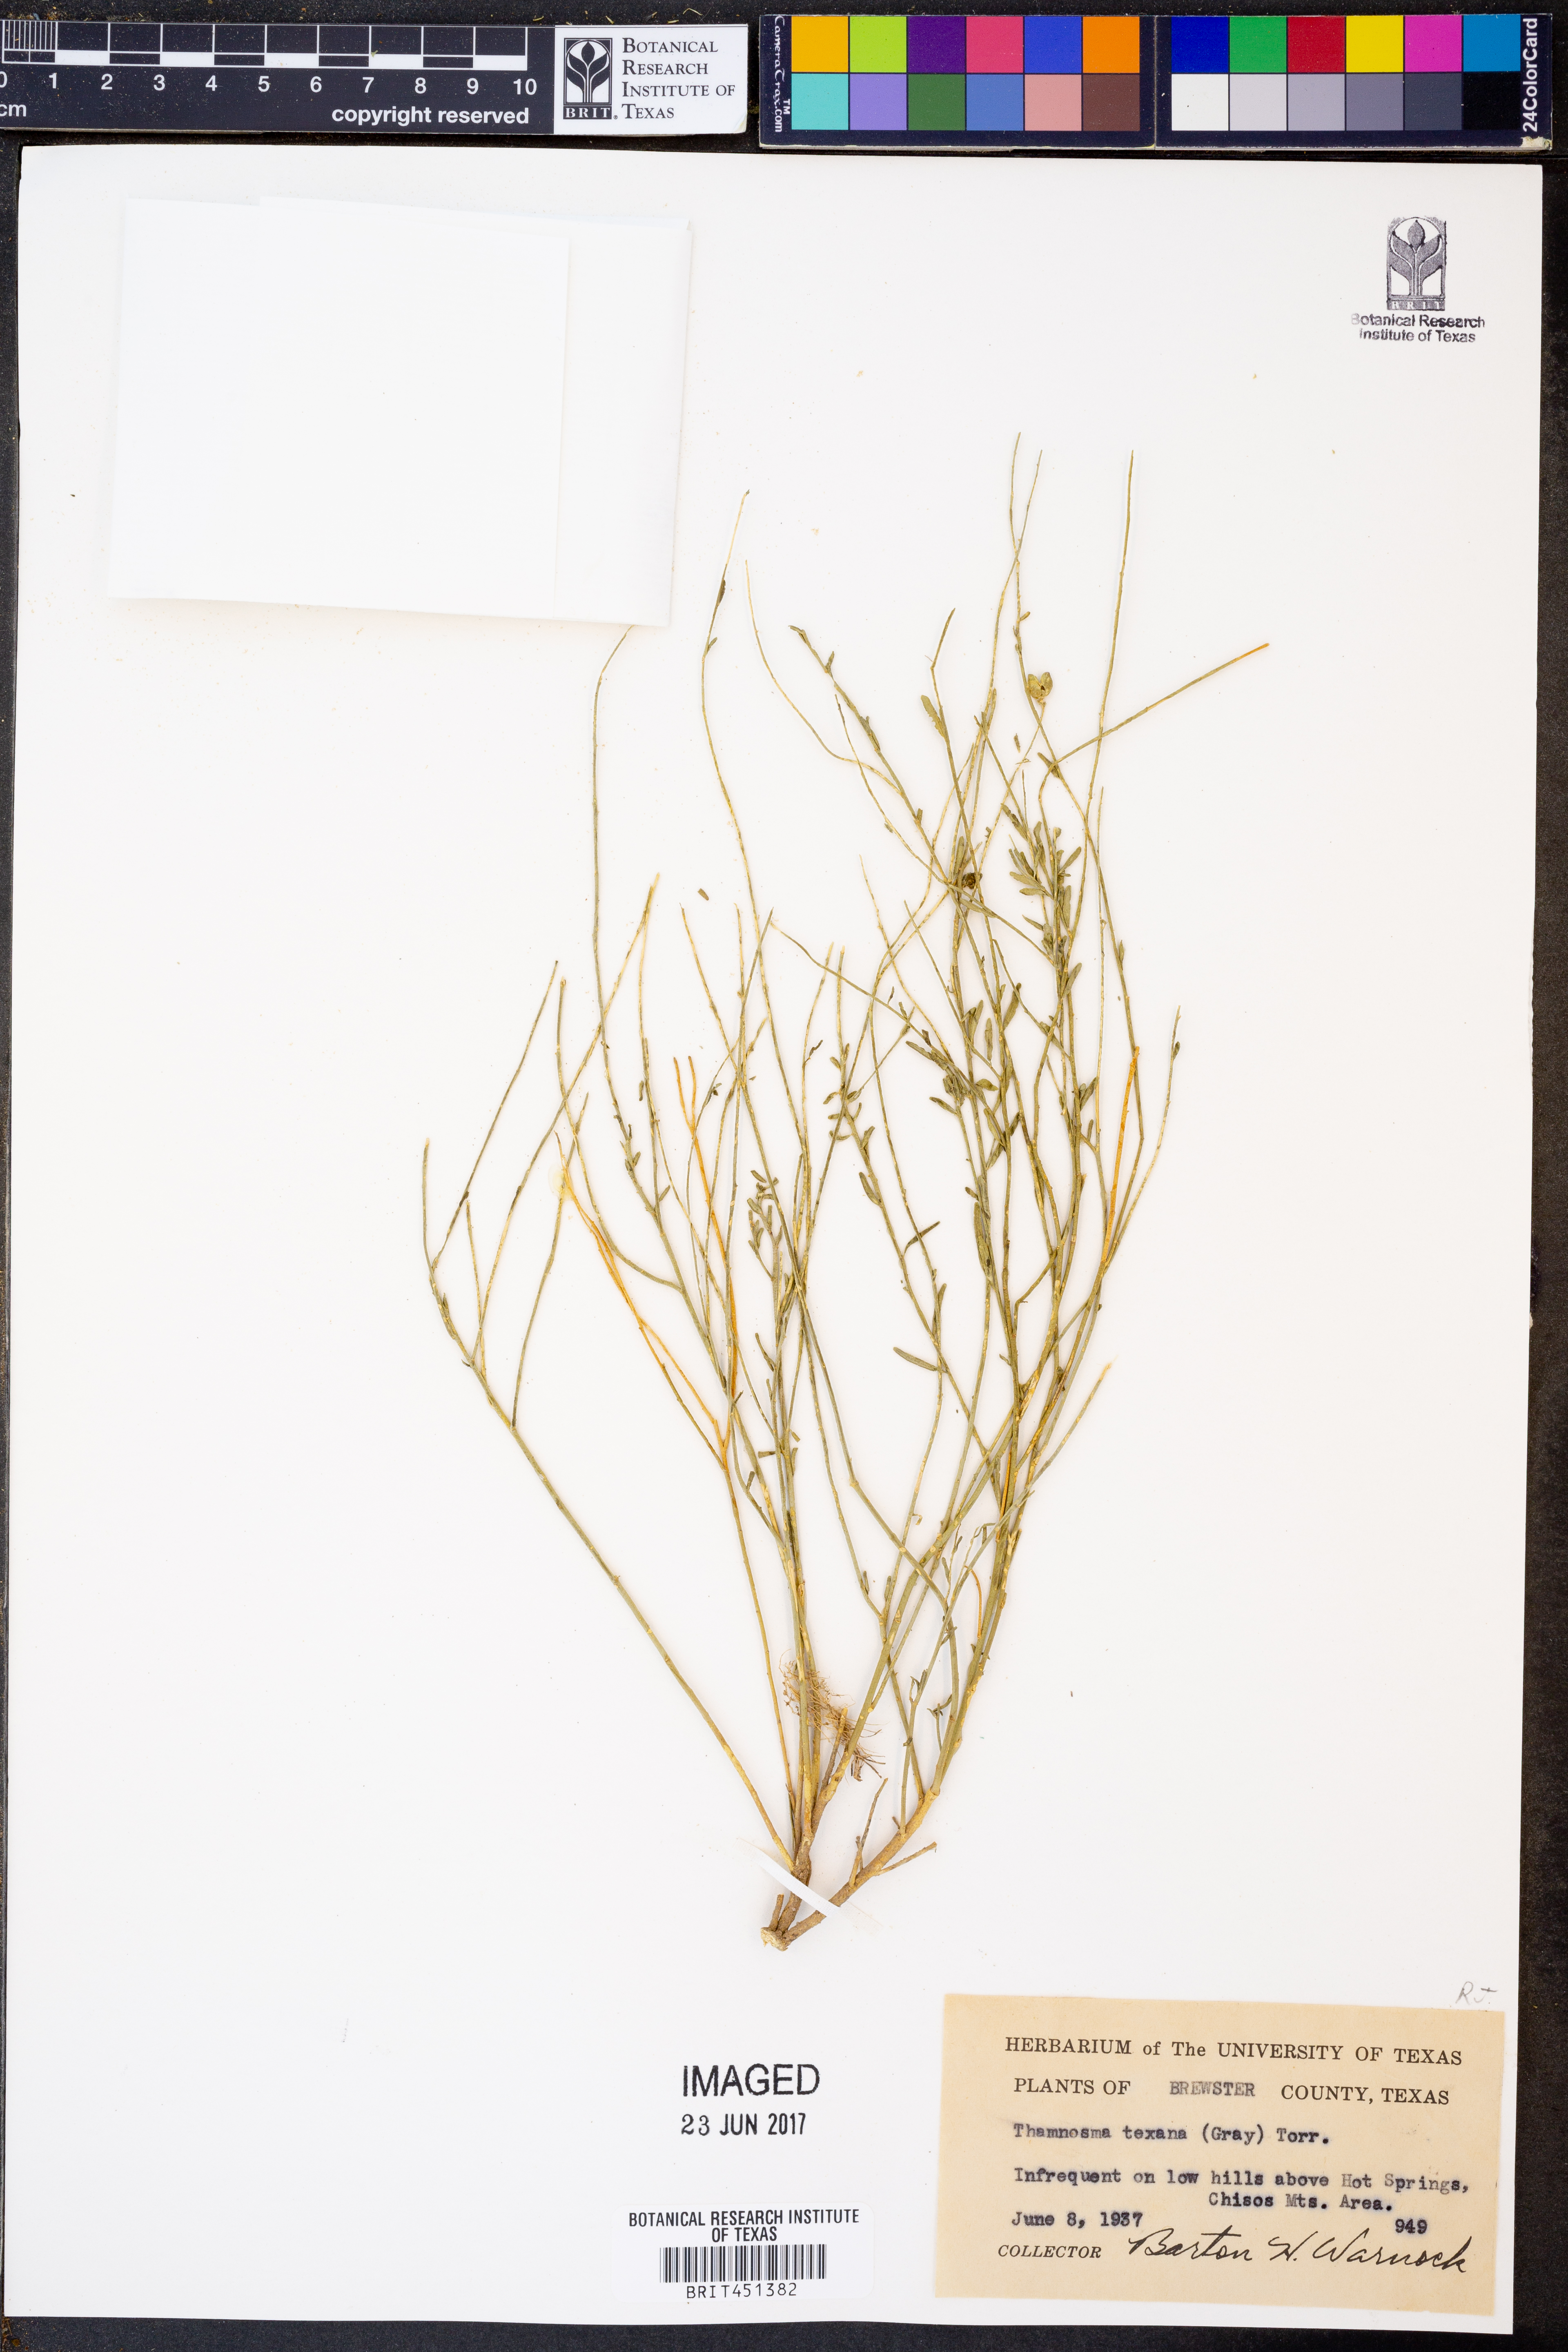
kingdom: Plantae
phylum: Tracheophyta
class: Magnoliopsida
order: Sapindales
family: Rutaceae
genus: Thamnosma
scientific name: Thamnosma texana
